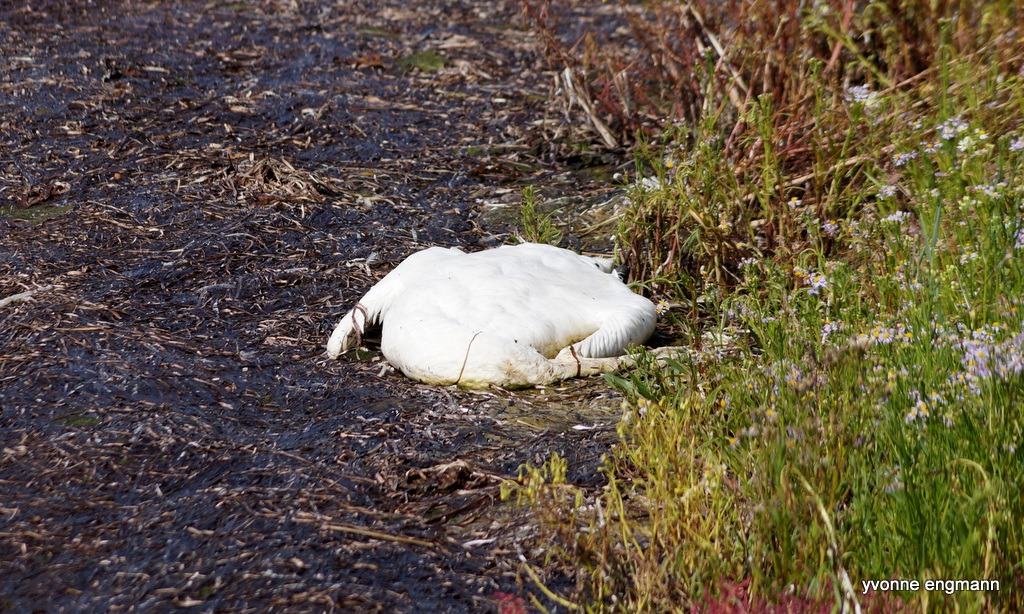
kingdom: Animalia
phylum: Chordata
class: Aves
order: Anseriformes
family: Anatidae
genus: Cygnus
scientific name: Cygnus olor
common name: Knopsvane
